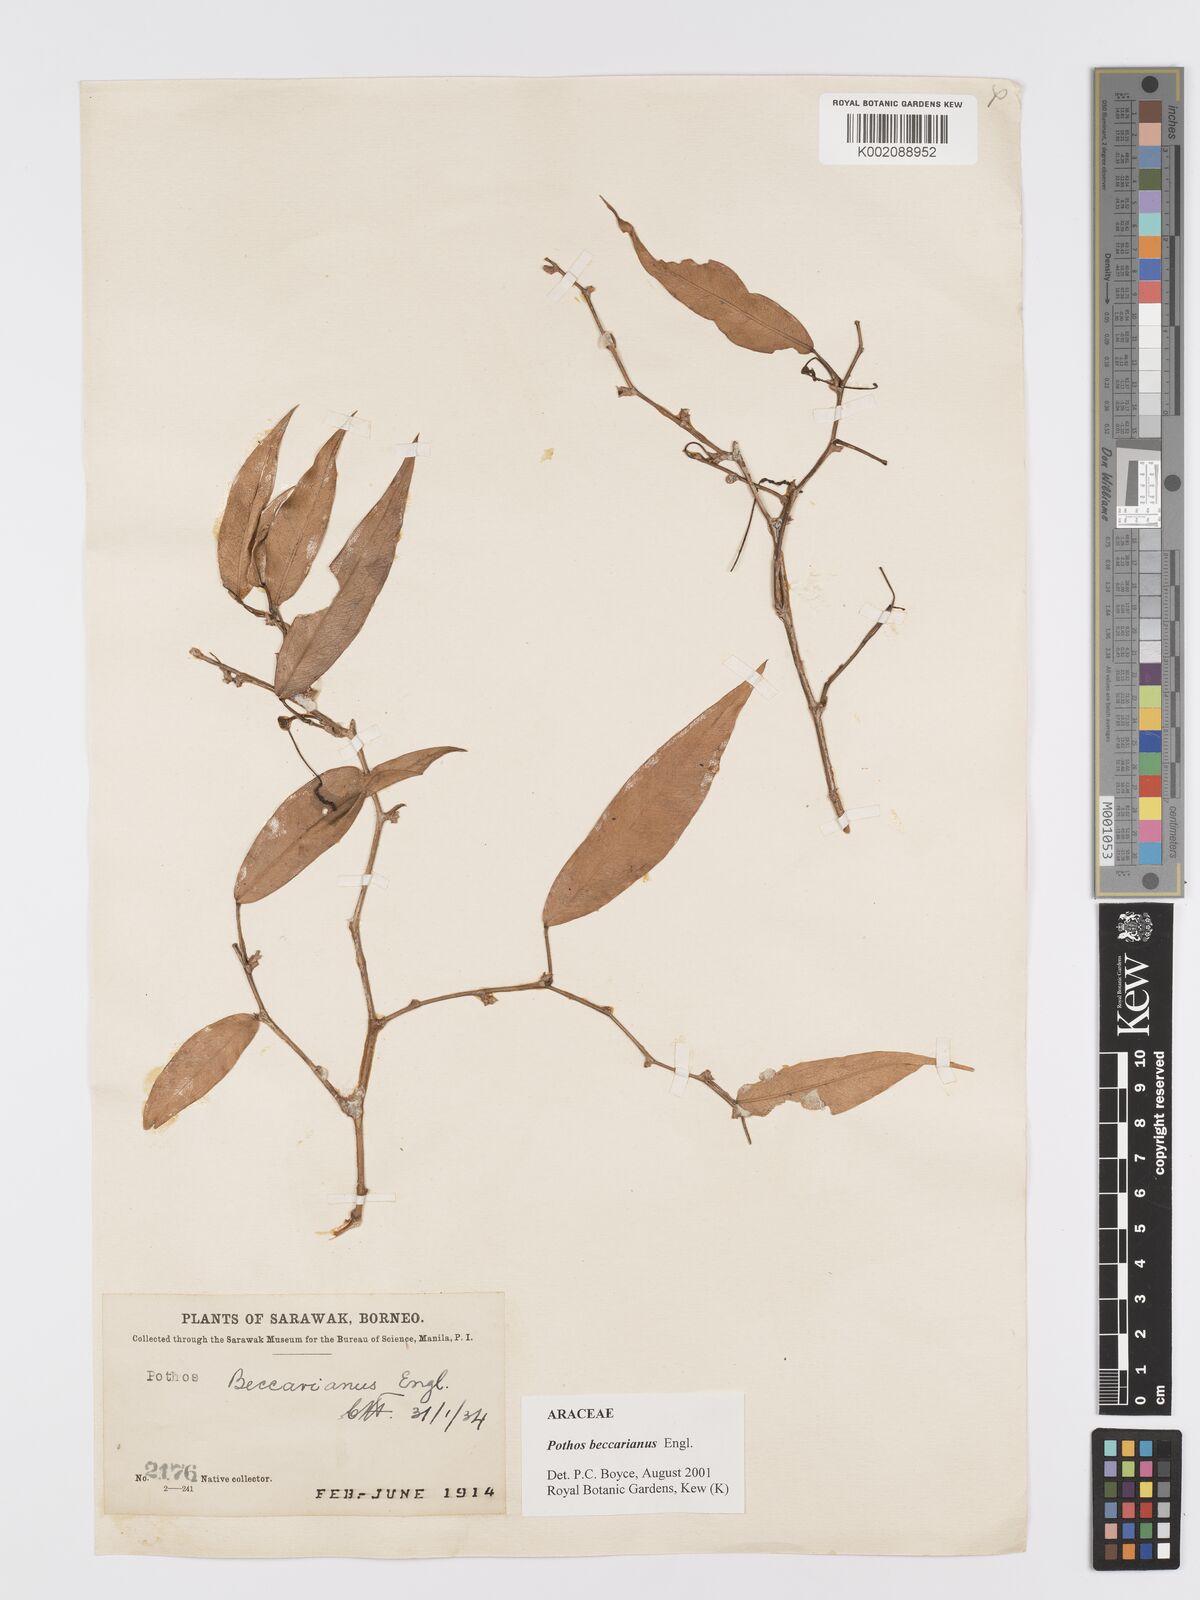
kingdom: Plantae
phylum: Tracheophyta
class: Liliopsida
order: Alismatales
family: Araceae
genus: Pothos
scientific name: Pothos beccarianus
